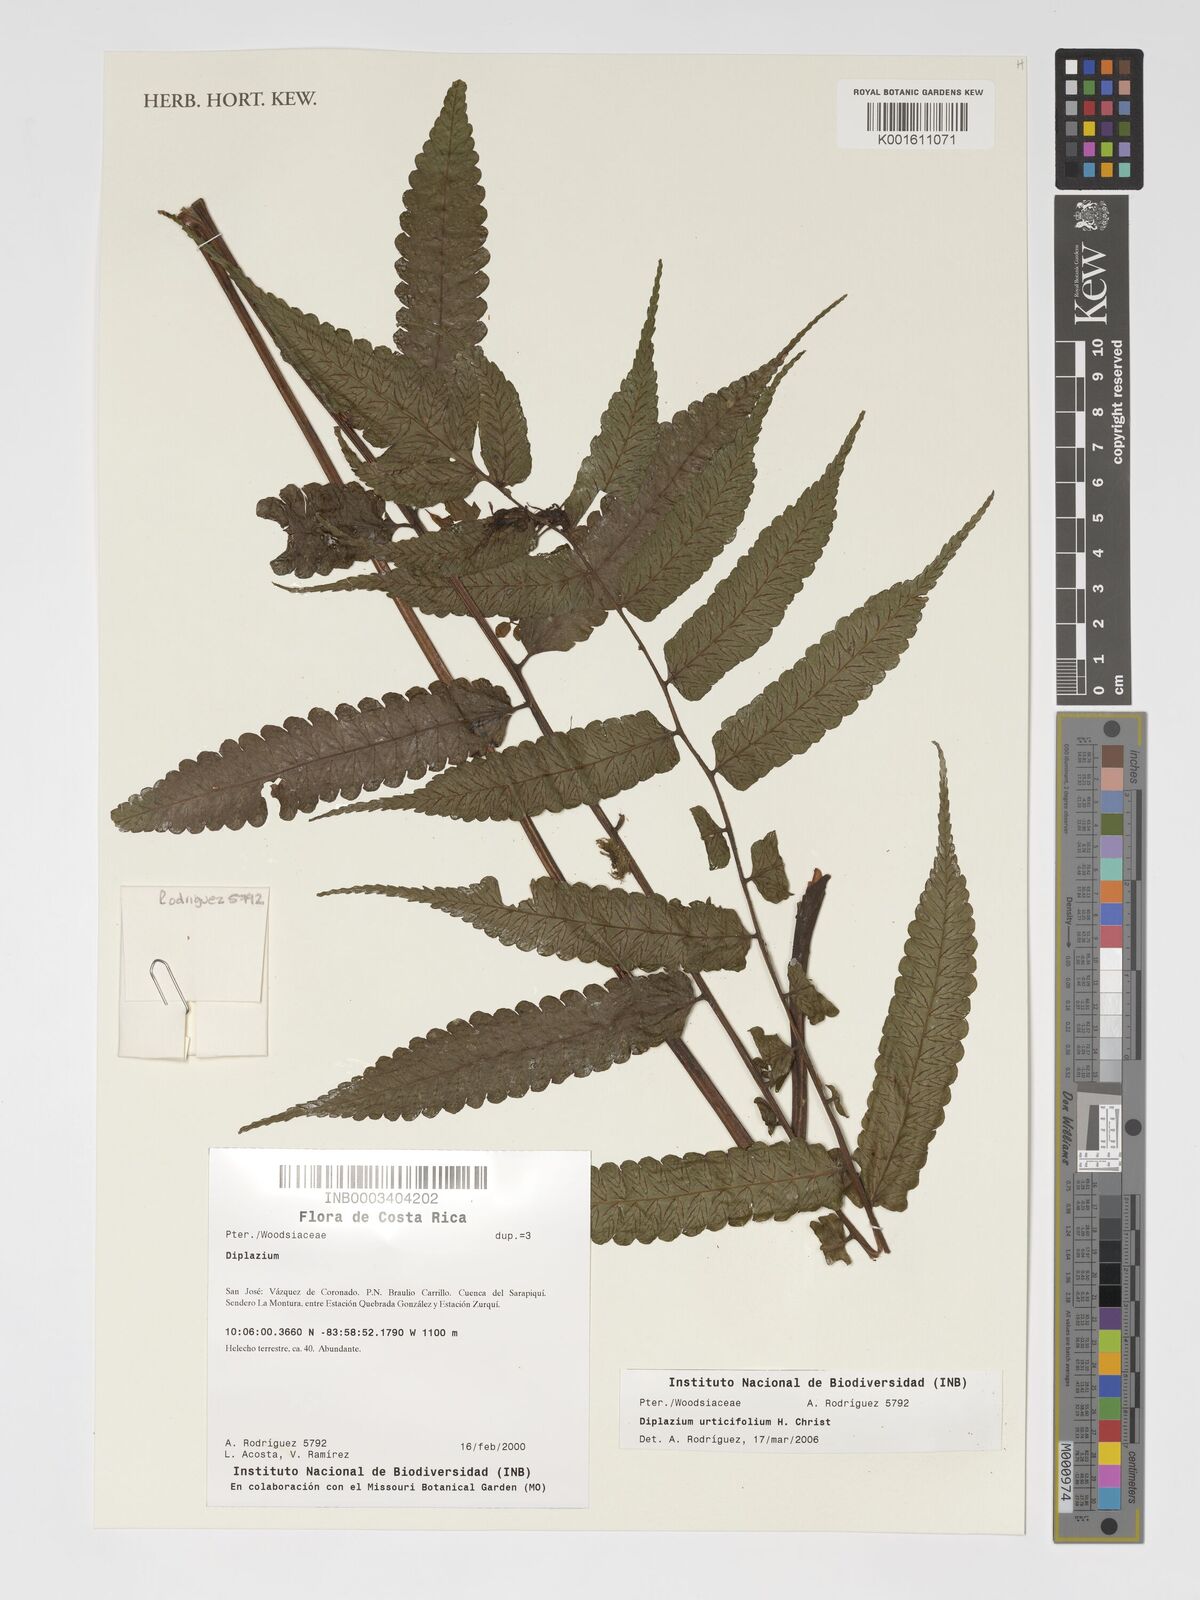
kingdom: Plantae
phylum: Tracheophyta
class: Polypodiopsida
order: Polypodiales
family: Athyriaceae
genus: Diplazium
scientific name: Diplazium urticifolium
